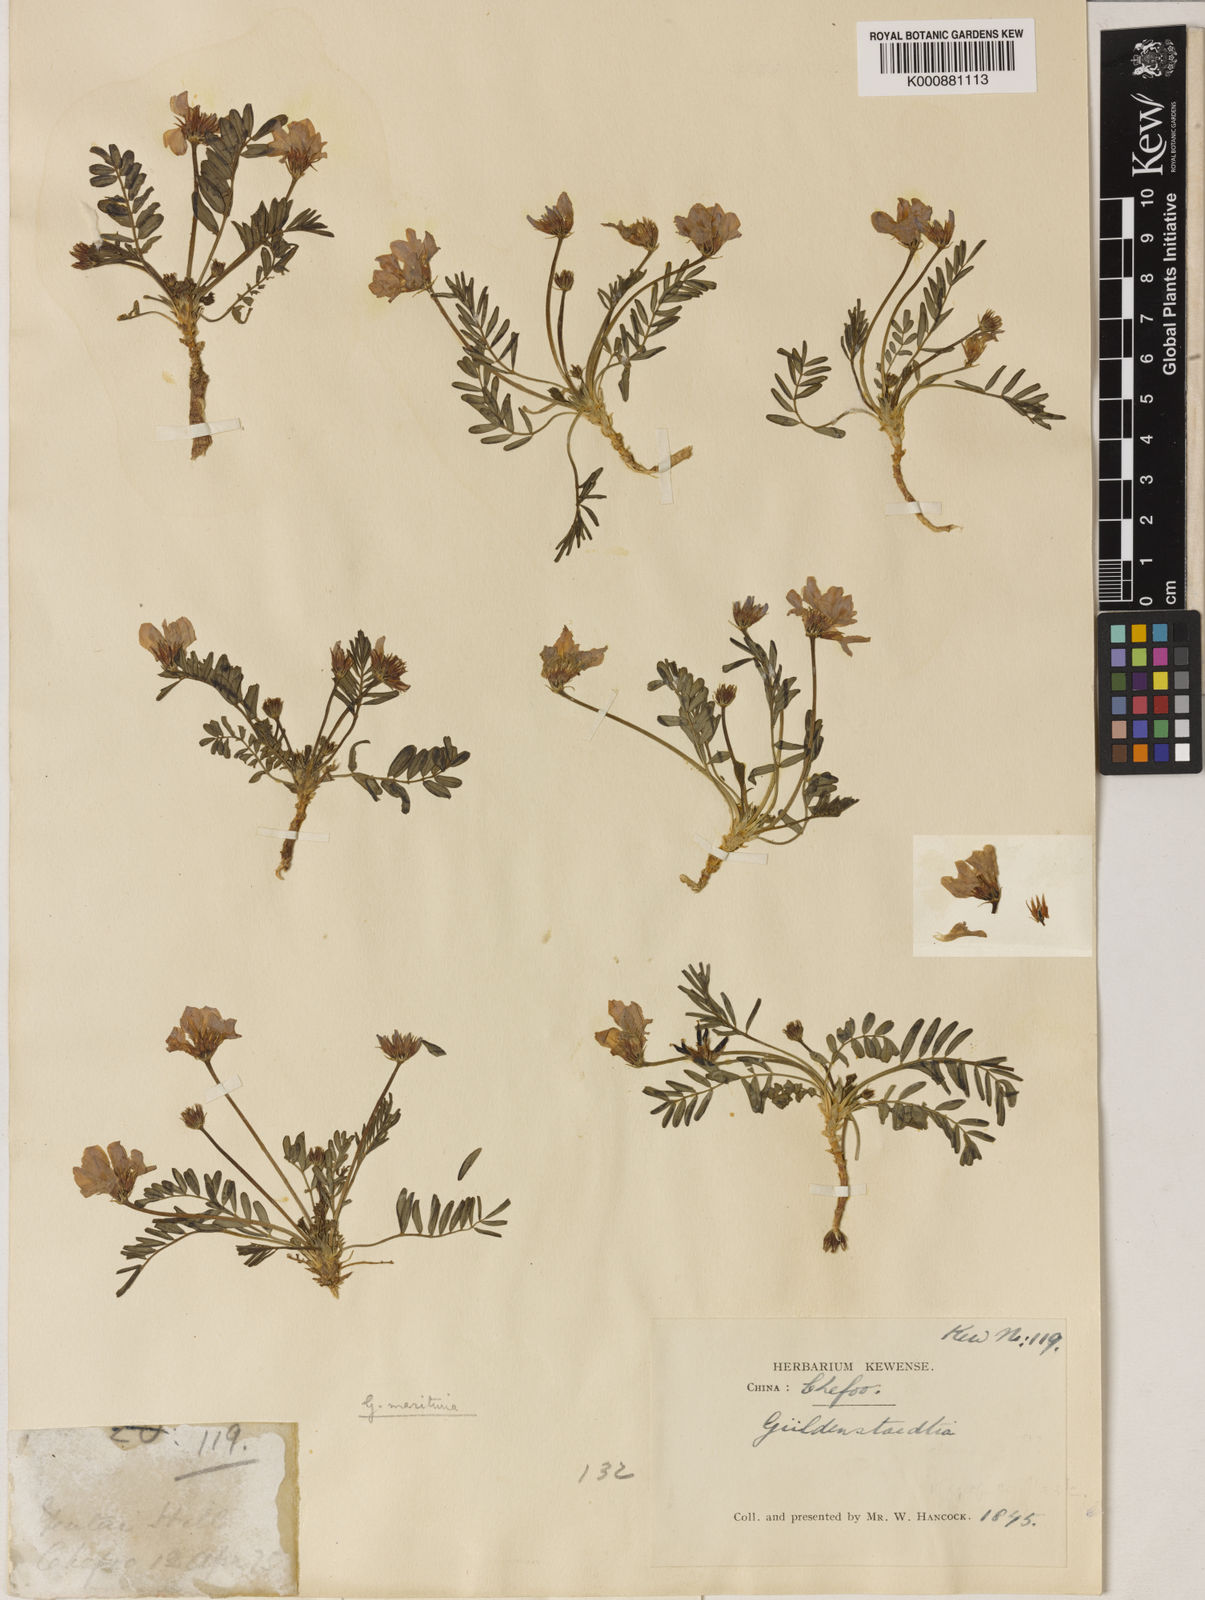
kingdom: Plantae
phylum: Tracheophyta
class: Magnoliopsida
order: Fabales
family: Fabaceae
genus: Gueldenstaedtia
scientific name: Gueldenstaedtia verna
